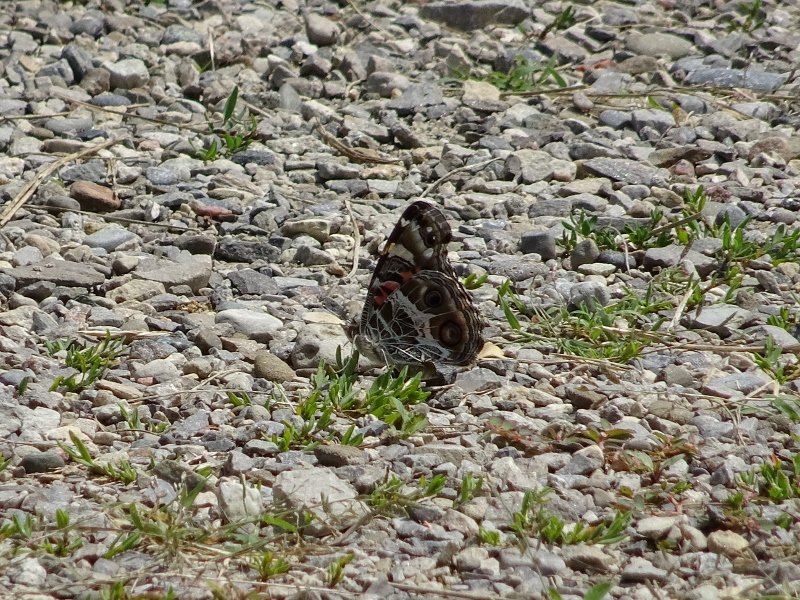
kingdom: Animalia
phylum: Arthropoda
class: Insecta
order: Lepidoptera
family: Nymphalidae
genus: Vanessa
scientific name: Vanessa virginiensis
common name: American Lady
